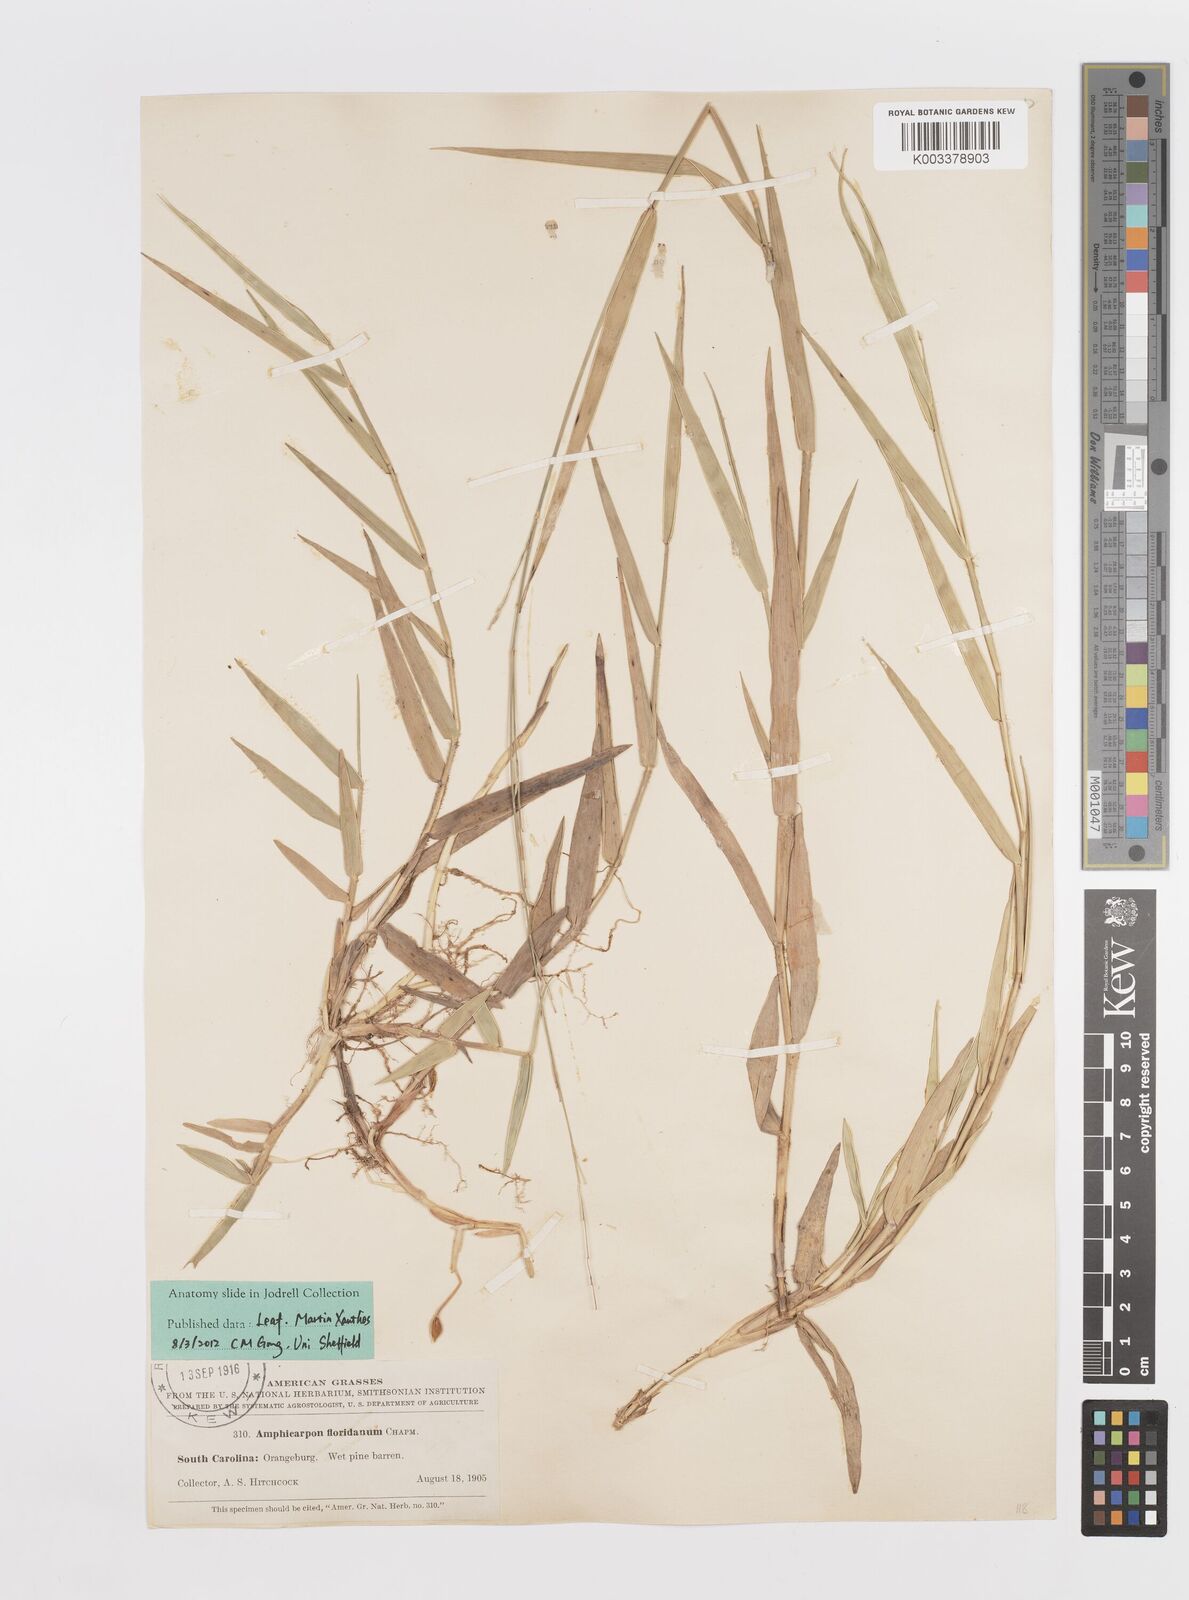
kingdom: Plantae
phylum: Tracheophyta
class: Liliopsida
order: Poales
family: Poaceae
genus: Amphicarpum
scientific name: Amphicarpum muehlenbergianum
